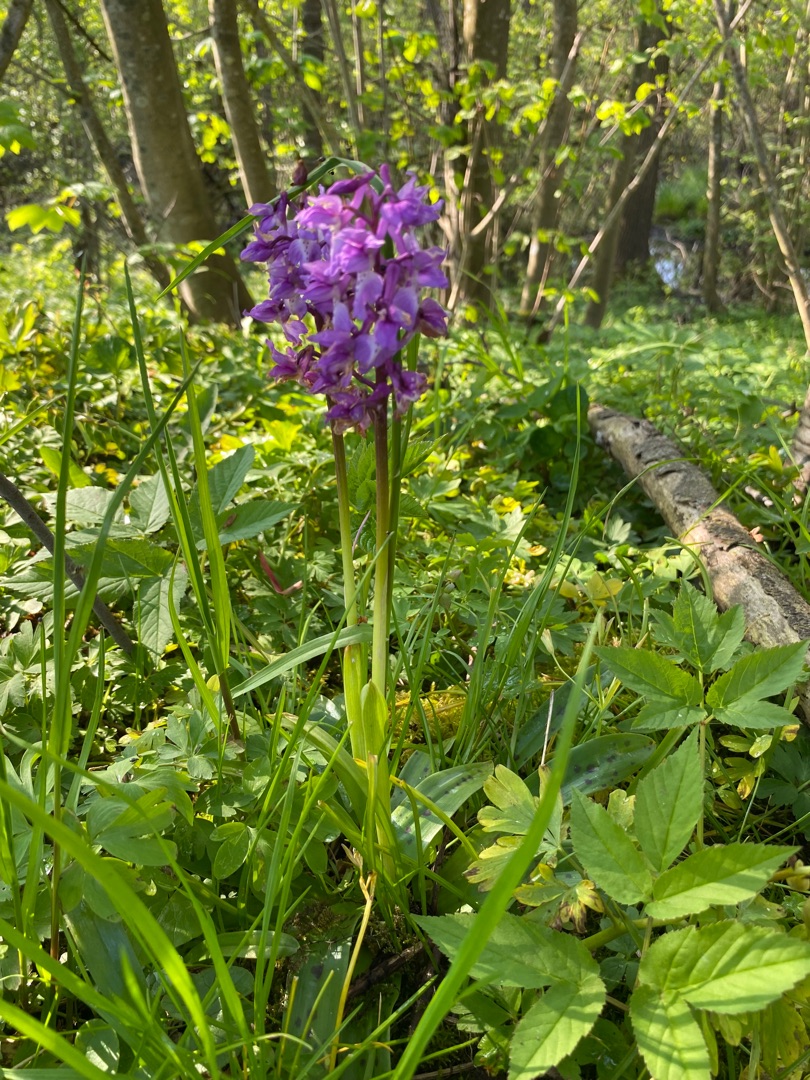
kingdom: Plantae
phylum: Tracheophyta
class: Liliopsida
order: Asparagales
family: Orchidaceae
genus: Orchis
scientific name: Orchis mascula
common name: Tyndakset gøgeurt
